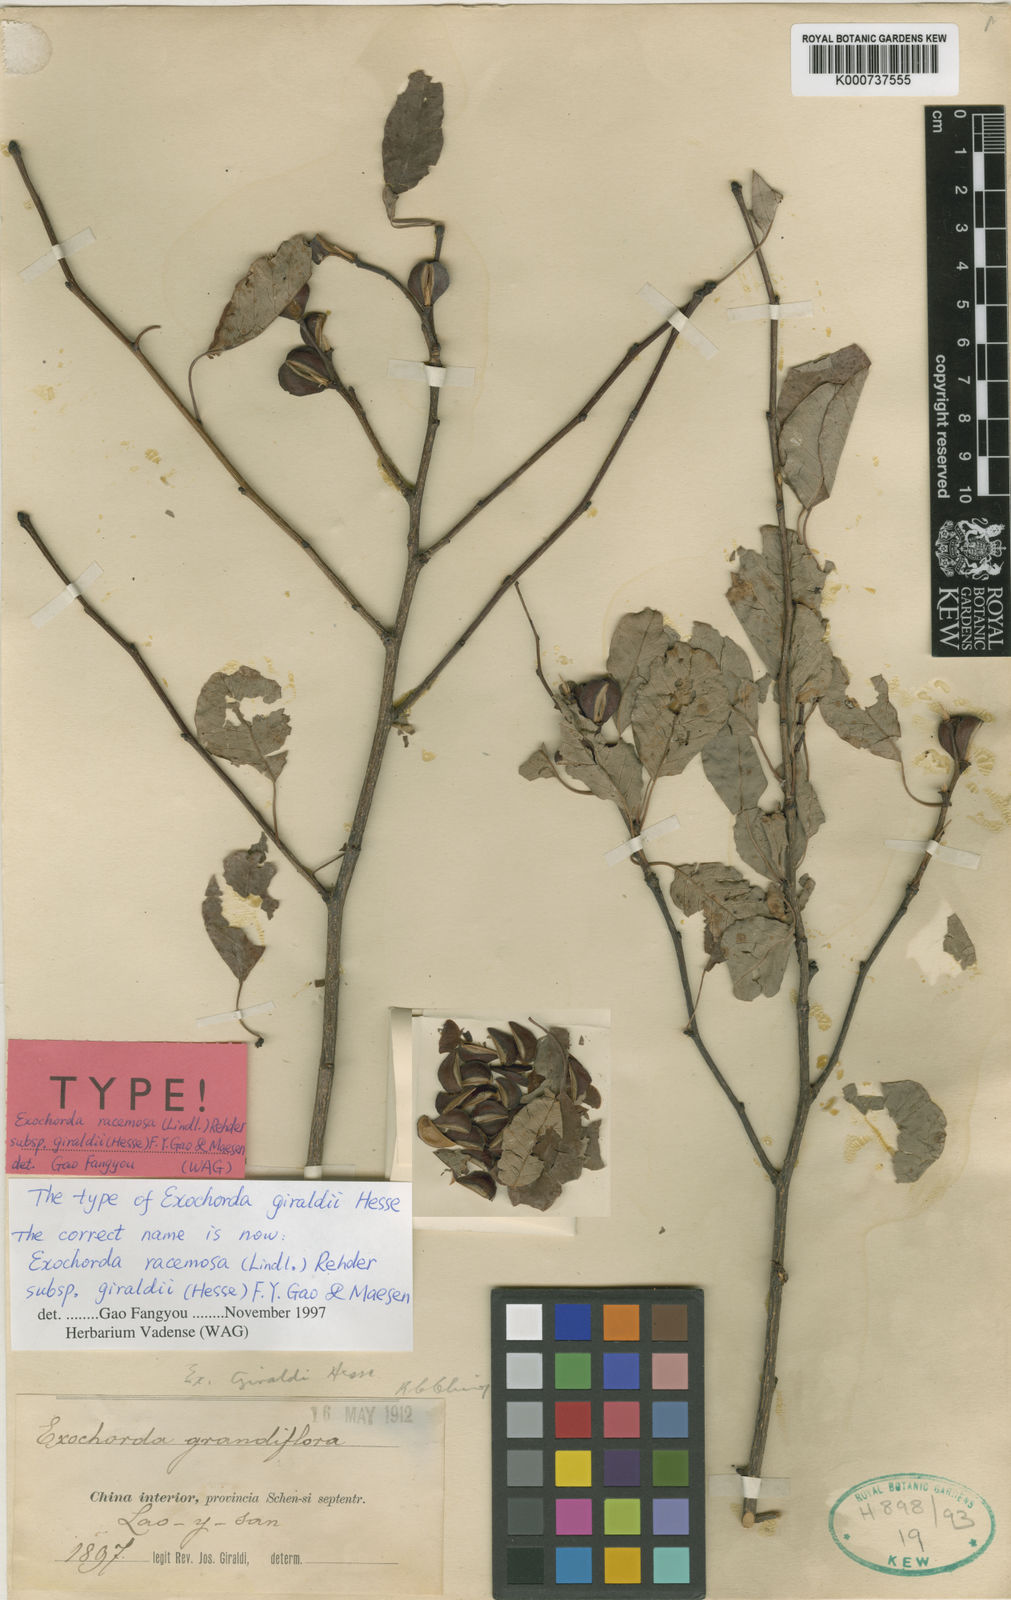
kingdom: Plantae
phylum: Tracheophyta
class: Magnoliopsida
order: Rosales
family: Rosaceae
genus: Exochorda
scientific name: Exochorda racemosa
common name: Common pearlbrush
